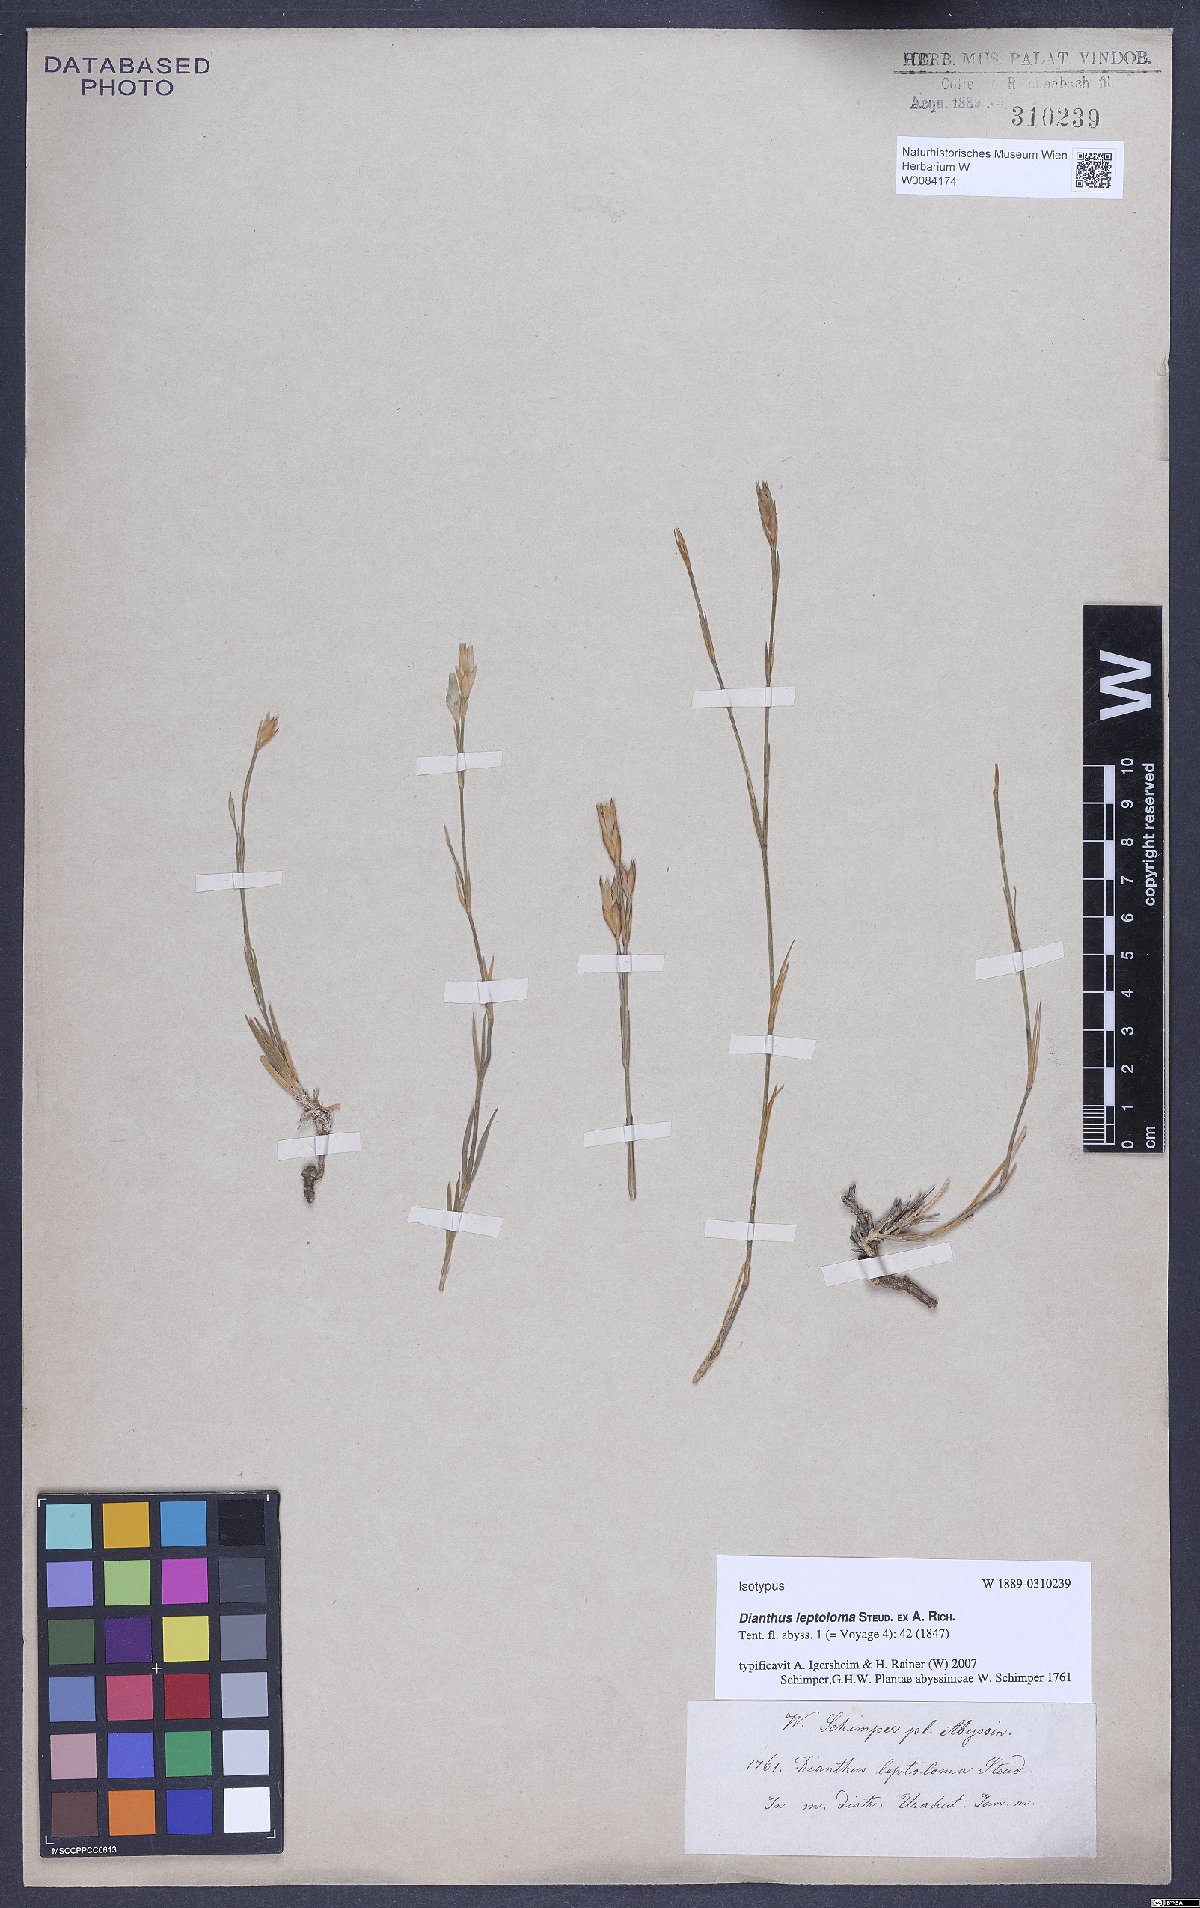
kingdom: Plantae
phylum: Tracheophyta
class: Magnoliopsida
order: Caryophyllales
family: Caryophyllaceae
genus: Dianthus
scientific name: Dianthus leptoloma
